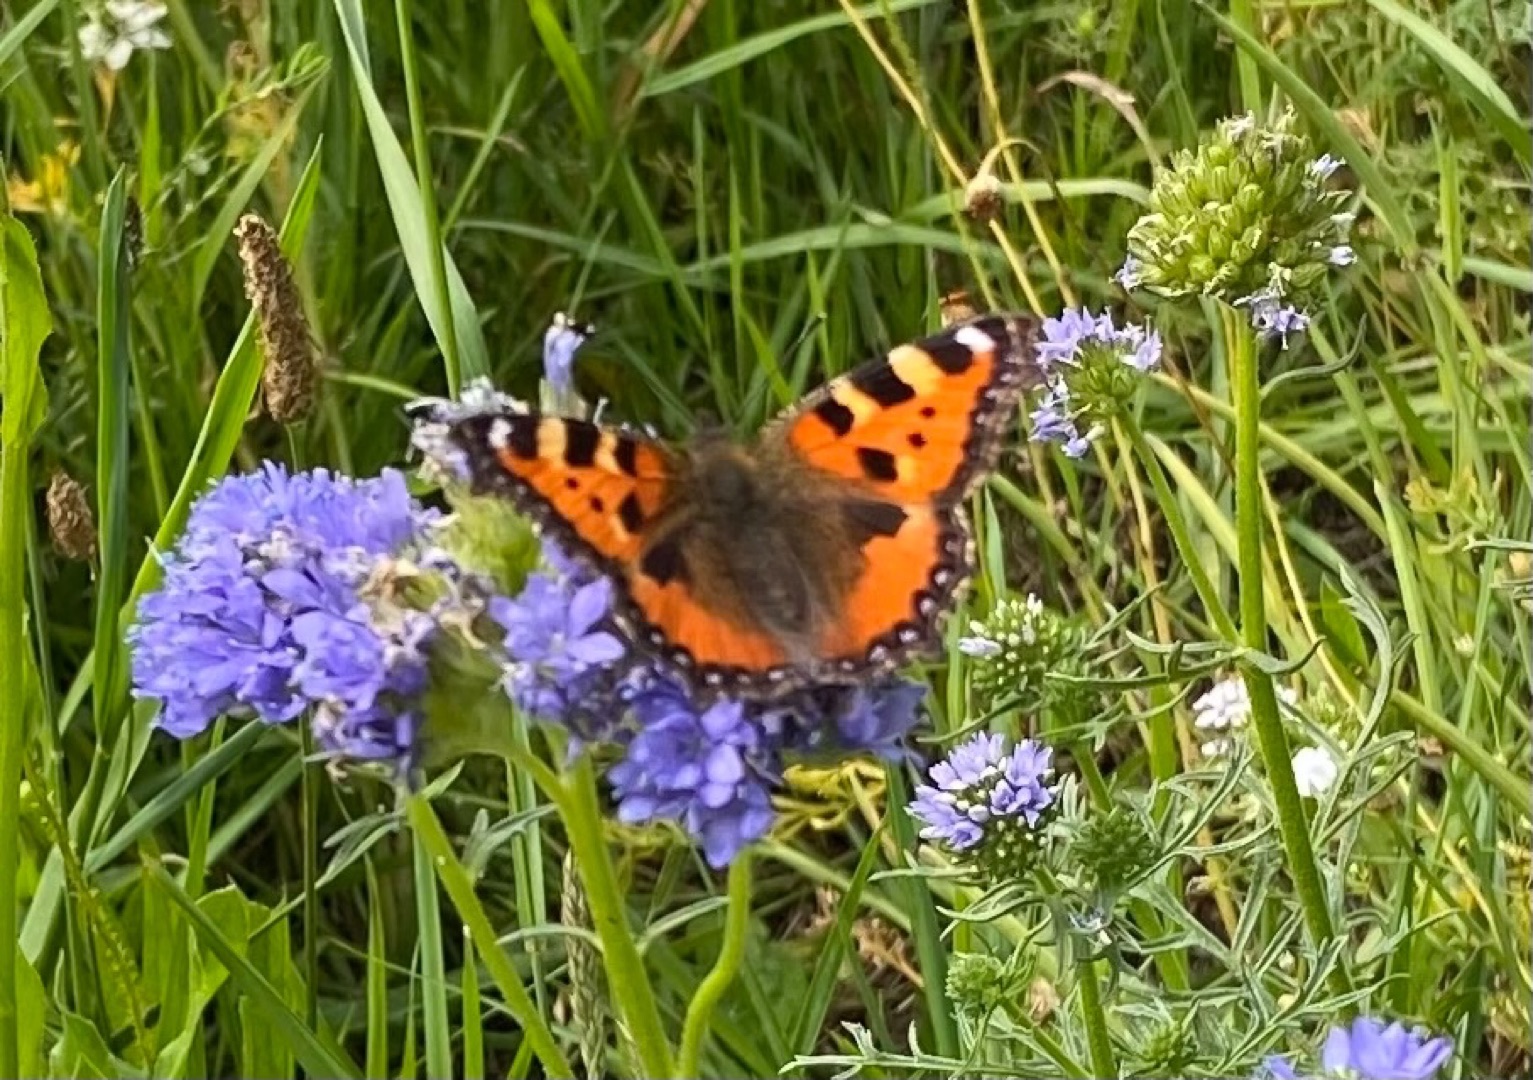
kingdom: Animalia
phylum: Arthropoda
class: Insecta
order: Lepidoptera
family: Nymphalidae
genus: Aglais
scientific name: Aglais urticae
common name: Nældens takvinge
